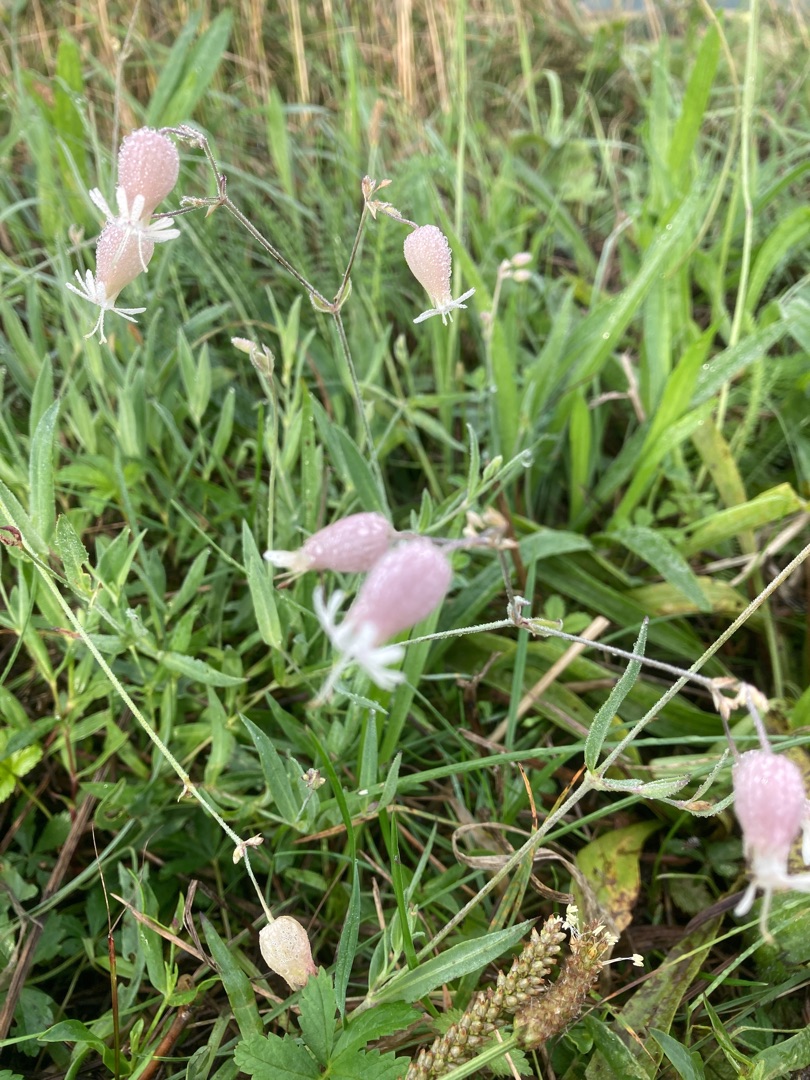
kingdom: Plantae
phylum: Tracheophyta
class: Magnoliopsida
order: Caryophyllales
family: Caryophyllaceae
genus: Silene
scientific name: Silene vulgaris
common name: Blæresmælde
